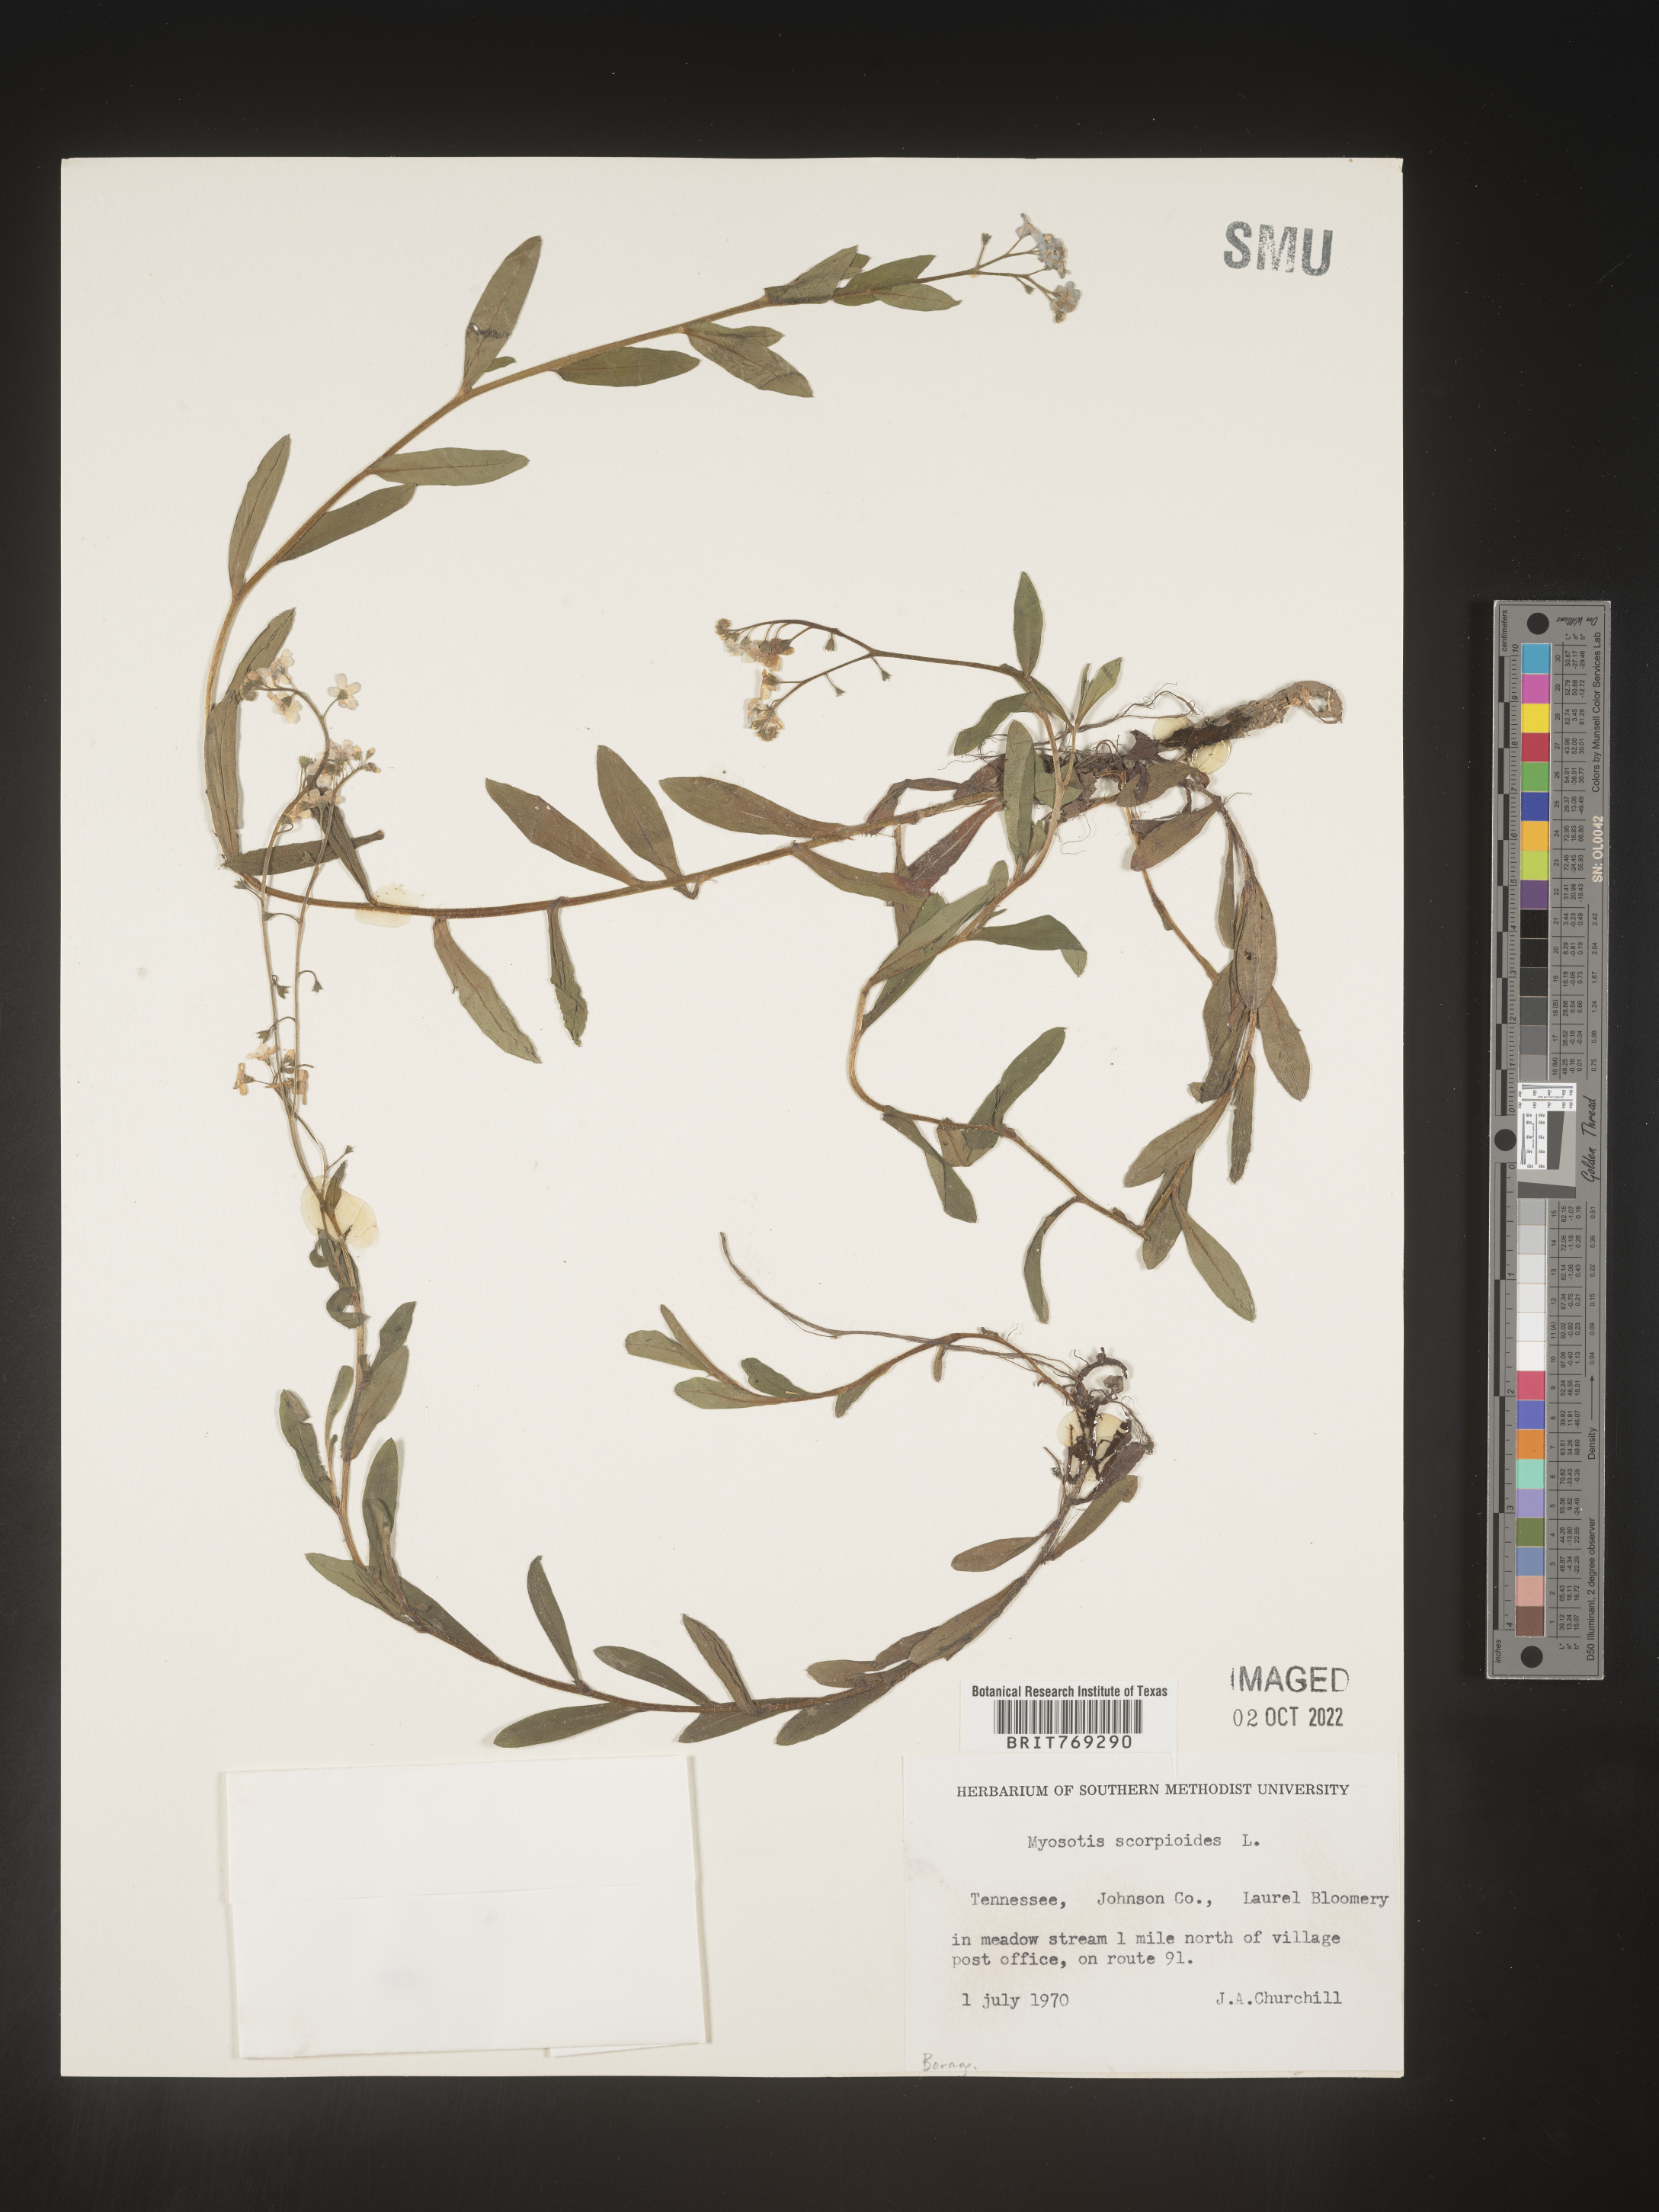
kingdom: Plantae
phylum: Tracheophyta
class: Magnoliopsida
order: Boraginales
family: Boraginaceae
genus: Myosotis
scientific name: Myosotis scorpioides
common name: Water forget-me-not
